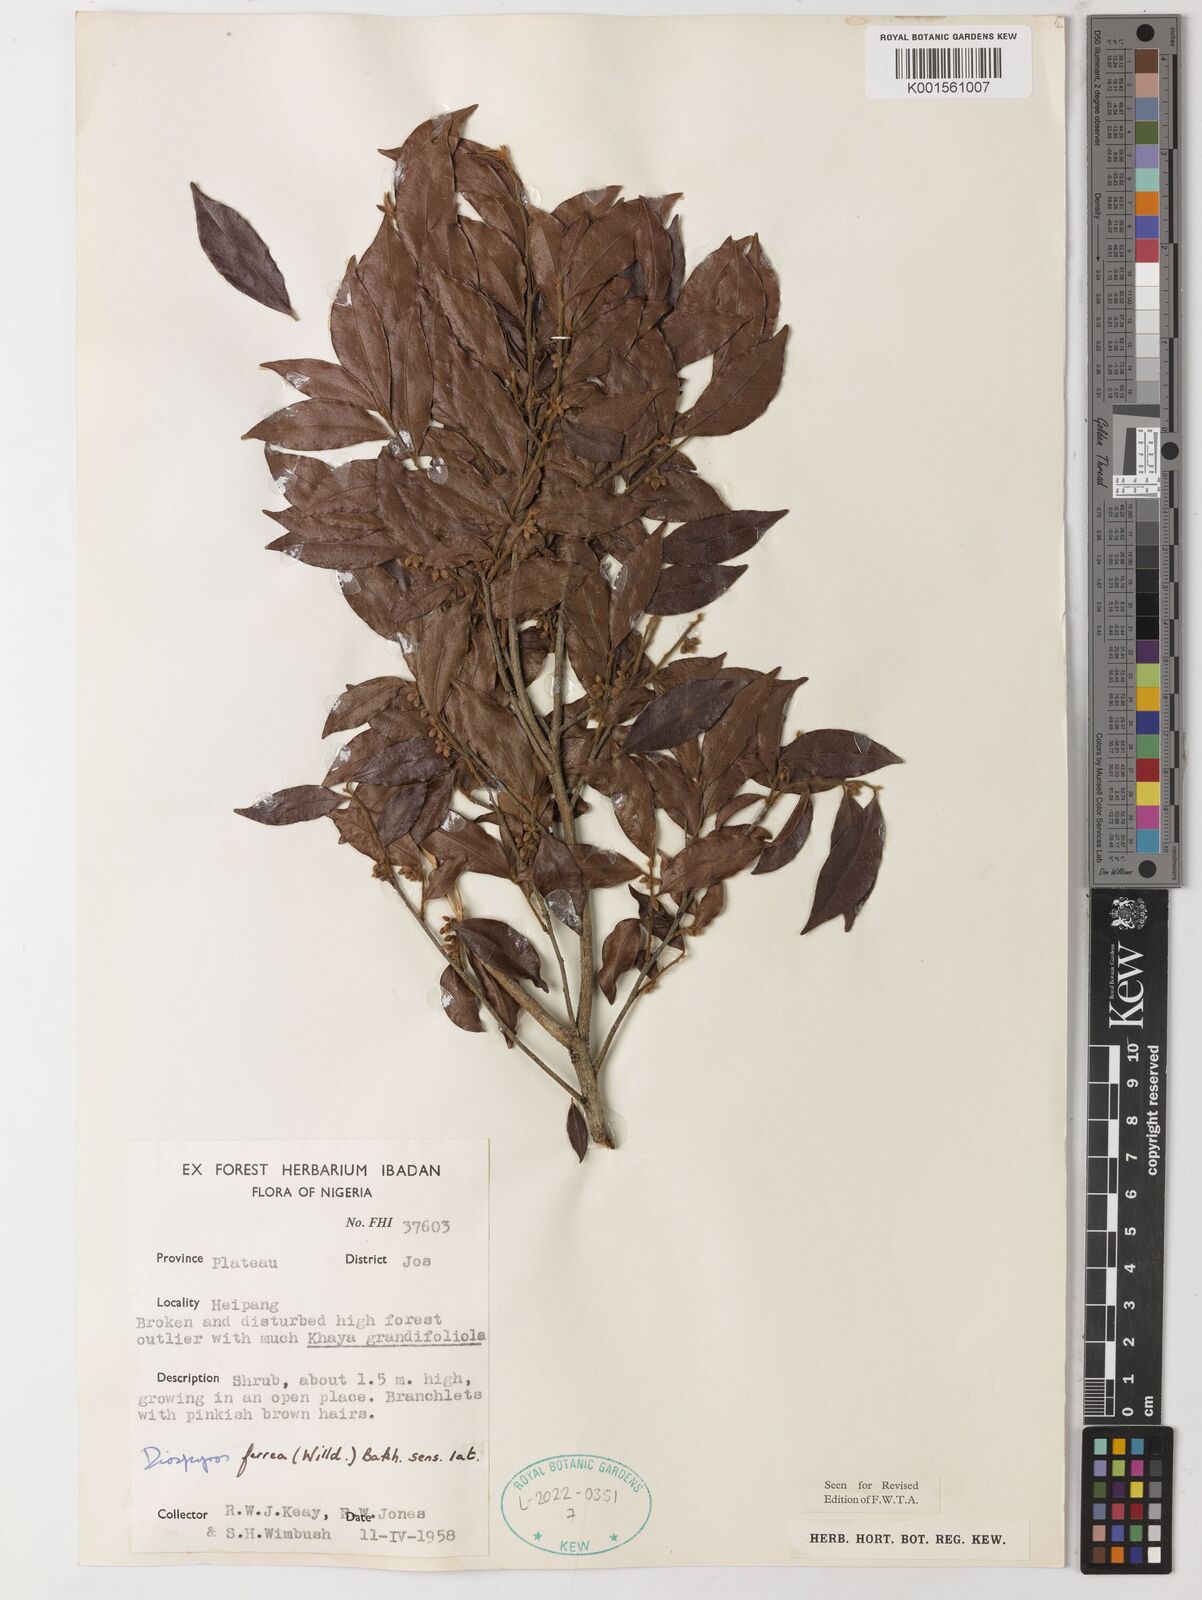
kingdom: Plantae
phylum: Tracheophyta
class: Magnoliopsida
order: Ericales
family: Ebenaceae
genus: Diospyros
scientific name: Diospyros ferrea
